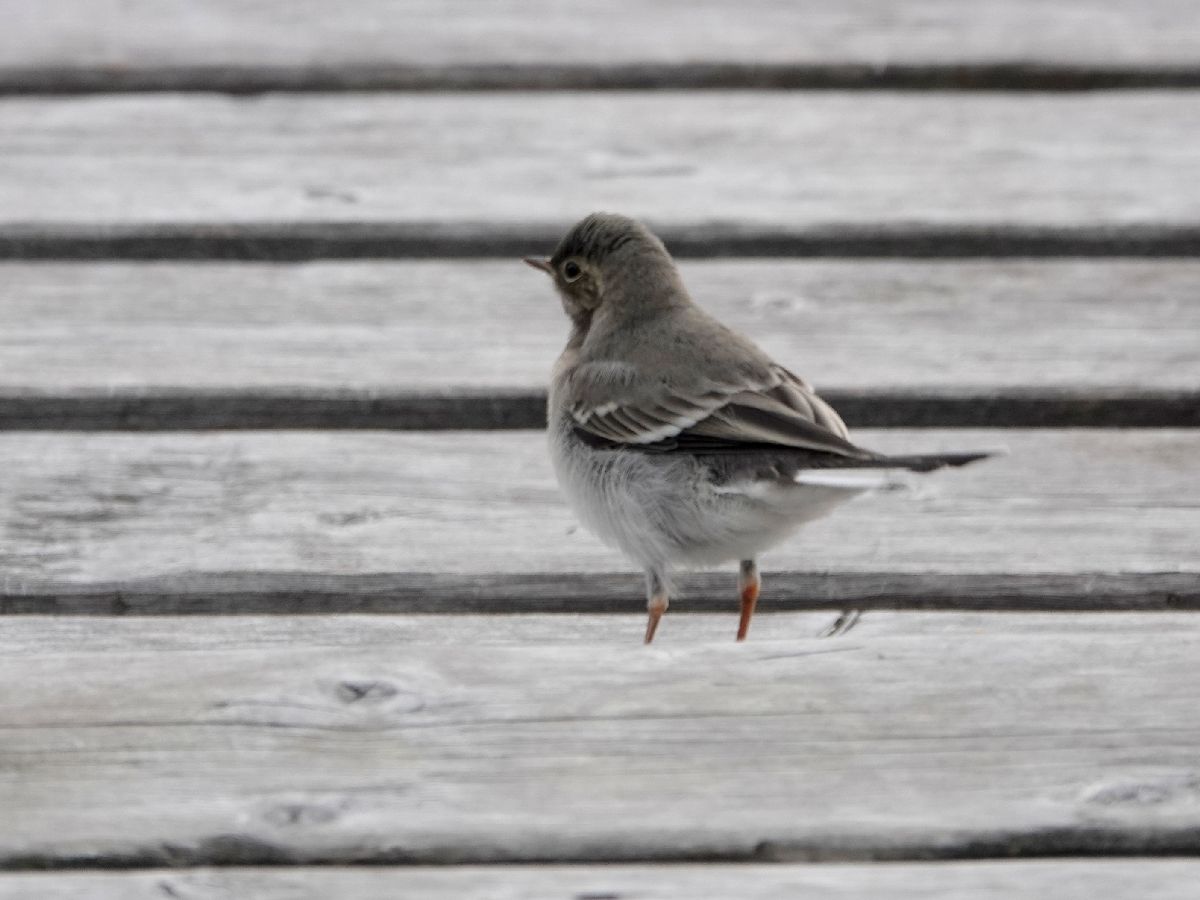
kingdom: Animalia
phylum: Chordata
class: Aves
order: Passeriformes
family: Motacillidae
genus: Motacilla
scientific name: Motacilla alba
